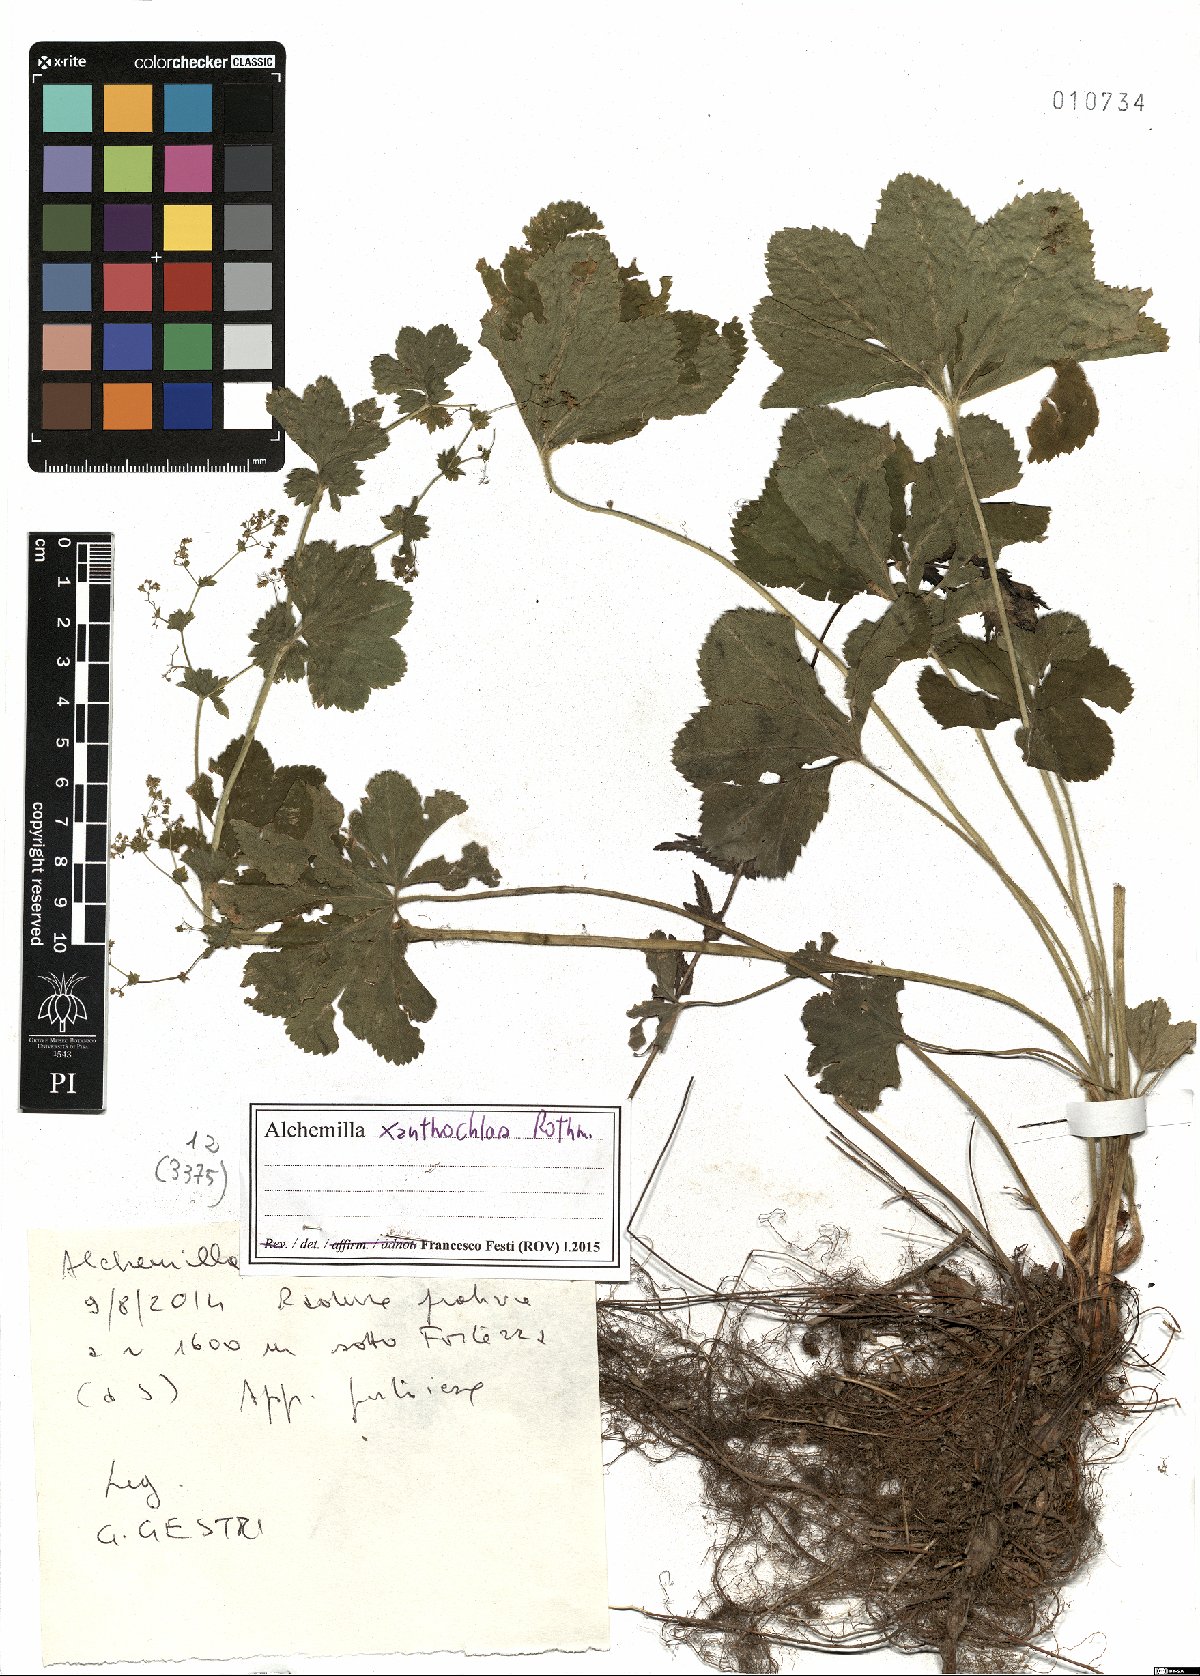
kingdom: Plantae
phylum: Tracheophyta
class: Magnoliopsida
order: Rosales
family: Rosaceae
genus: Alchemilla
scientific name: Alchemilla xanthochlora
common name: Intermediate lady's-mantle
